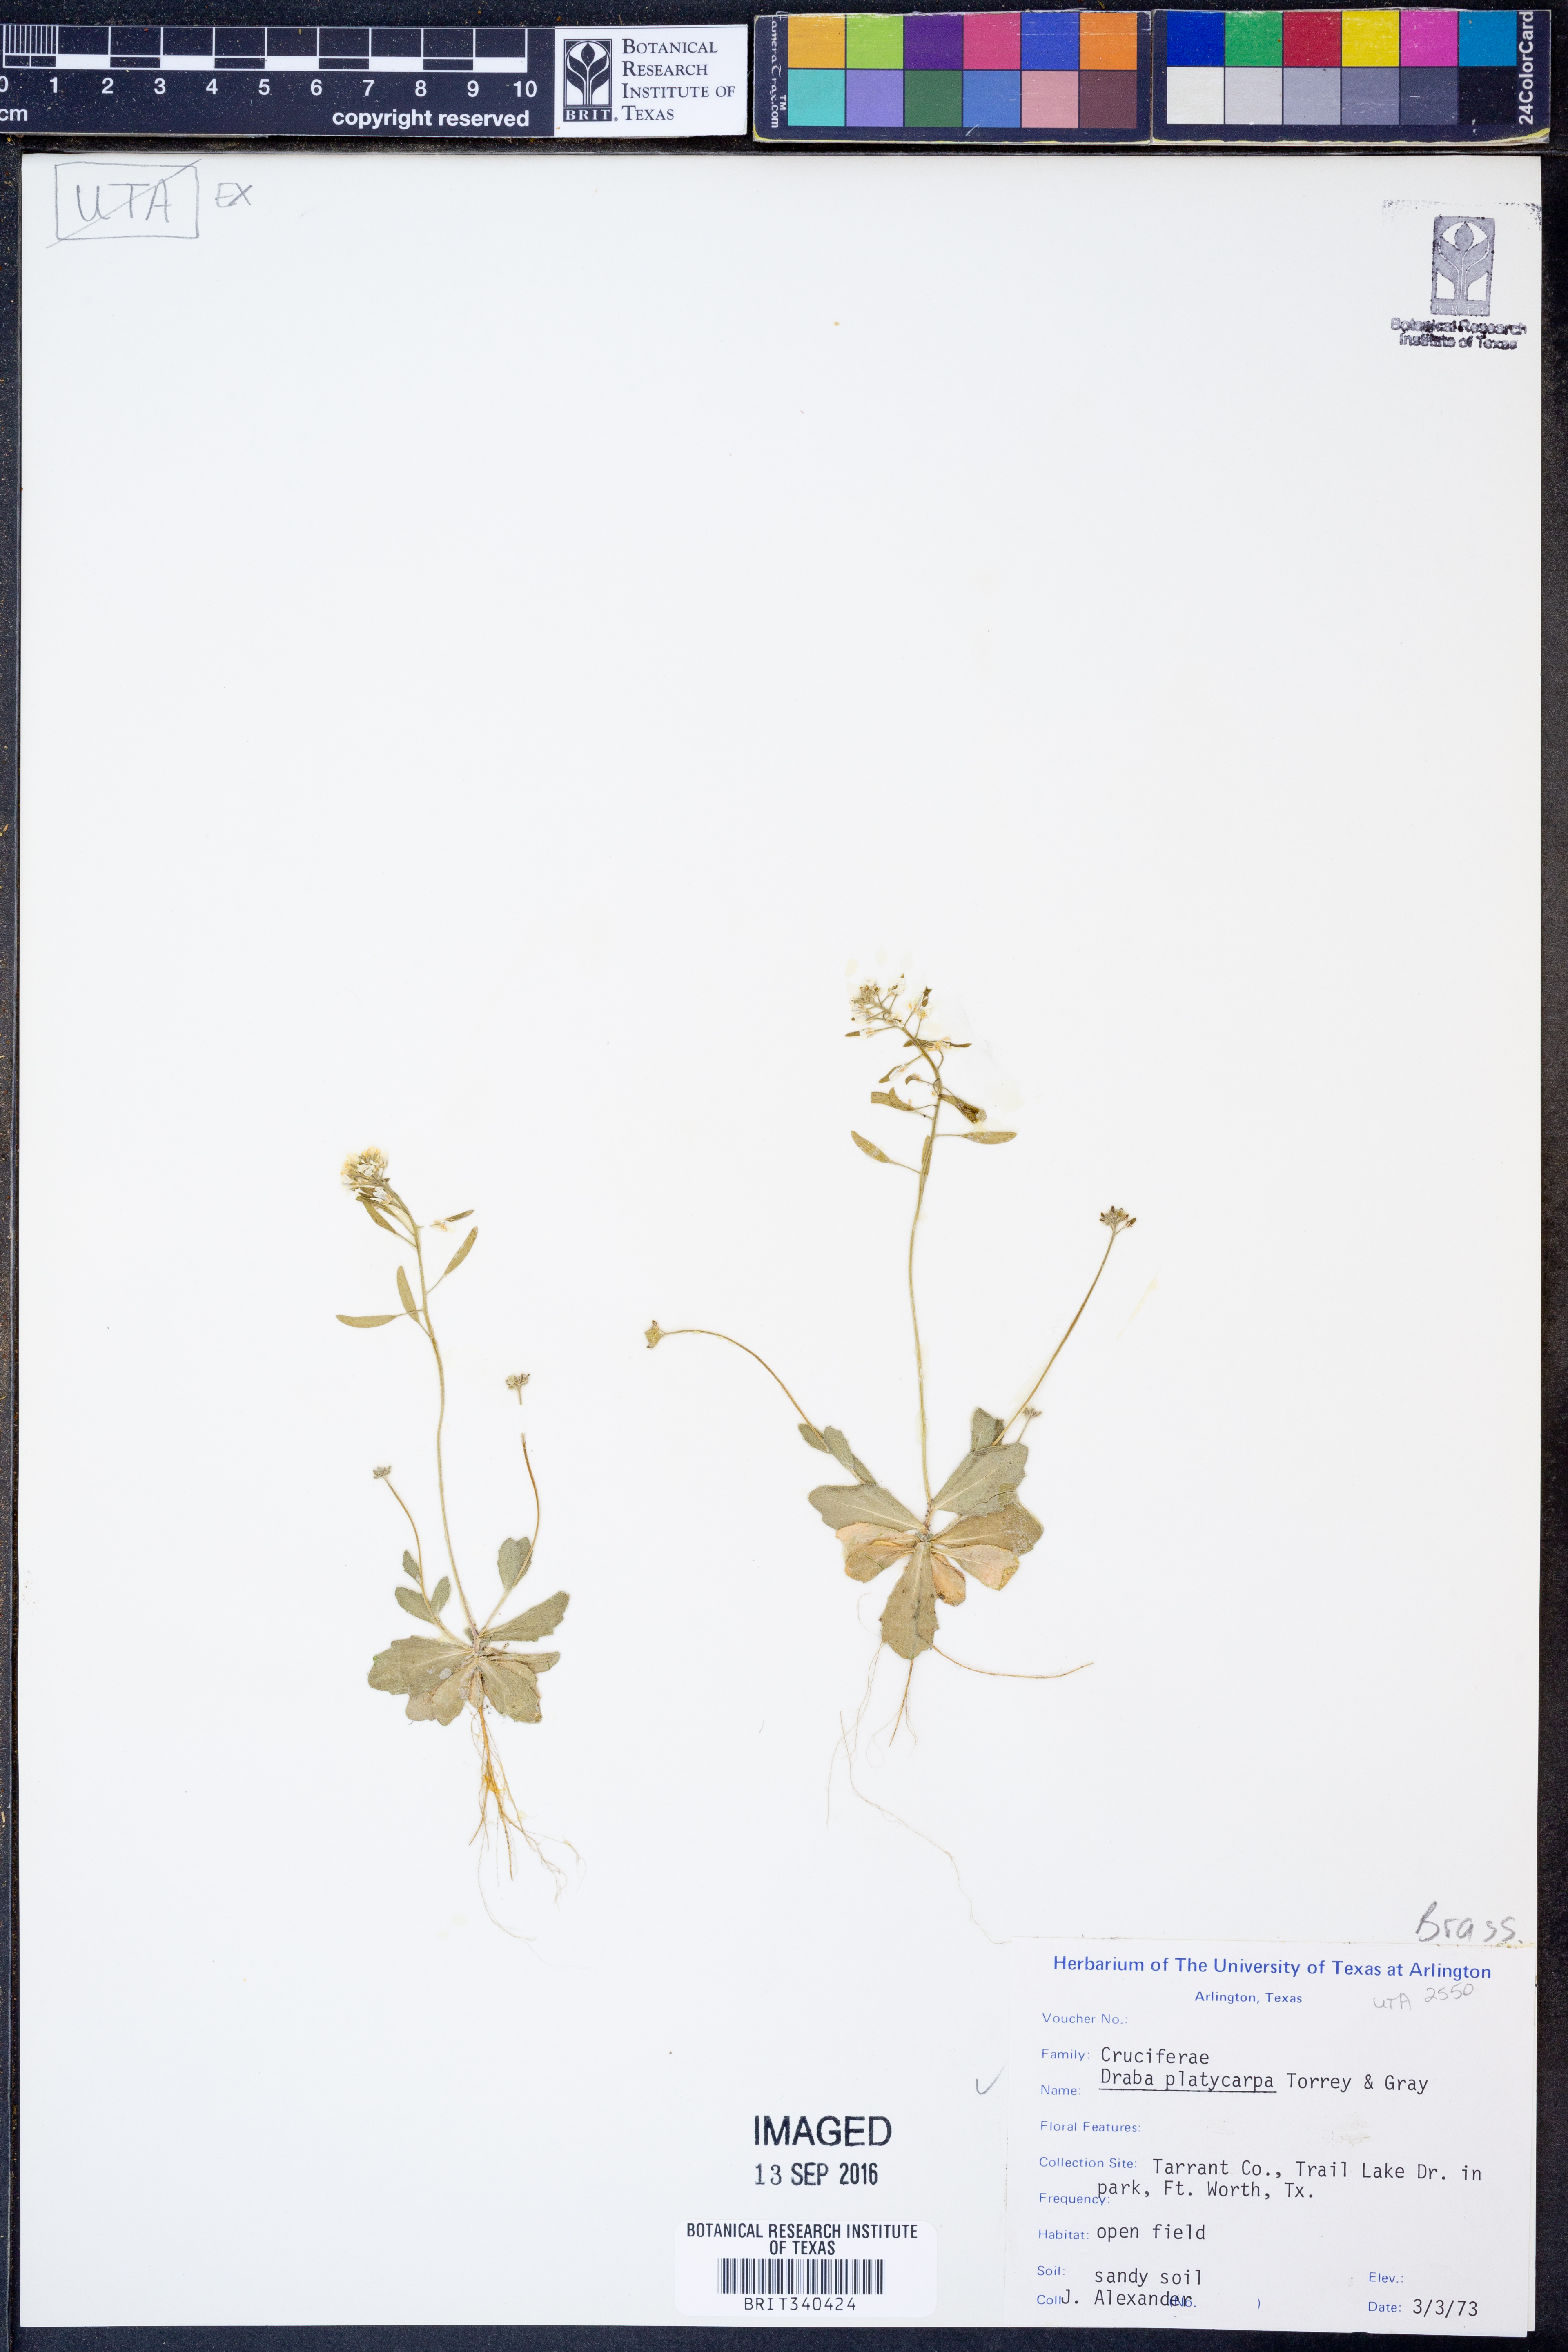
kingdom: Plantae
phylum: Tracheophyta
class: Magnoliopsida
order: Brassicales
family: Brassicaceae
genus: Tomostima
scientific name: Tomostima platycarpa
